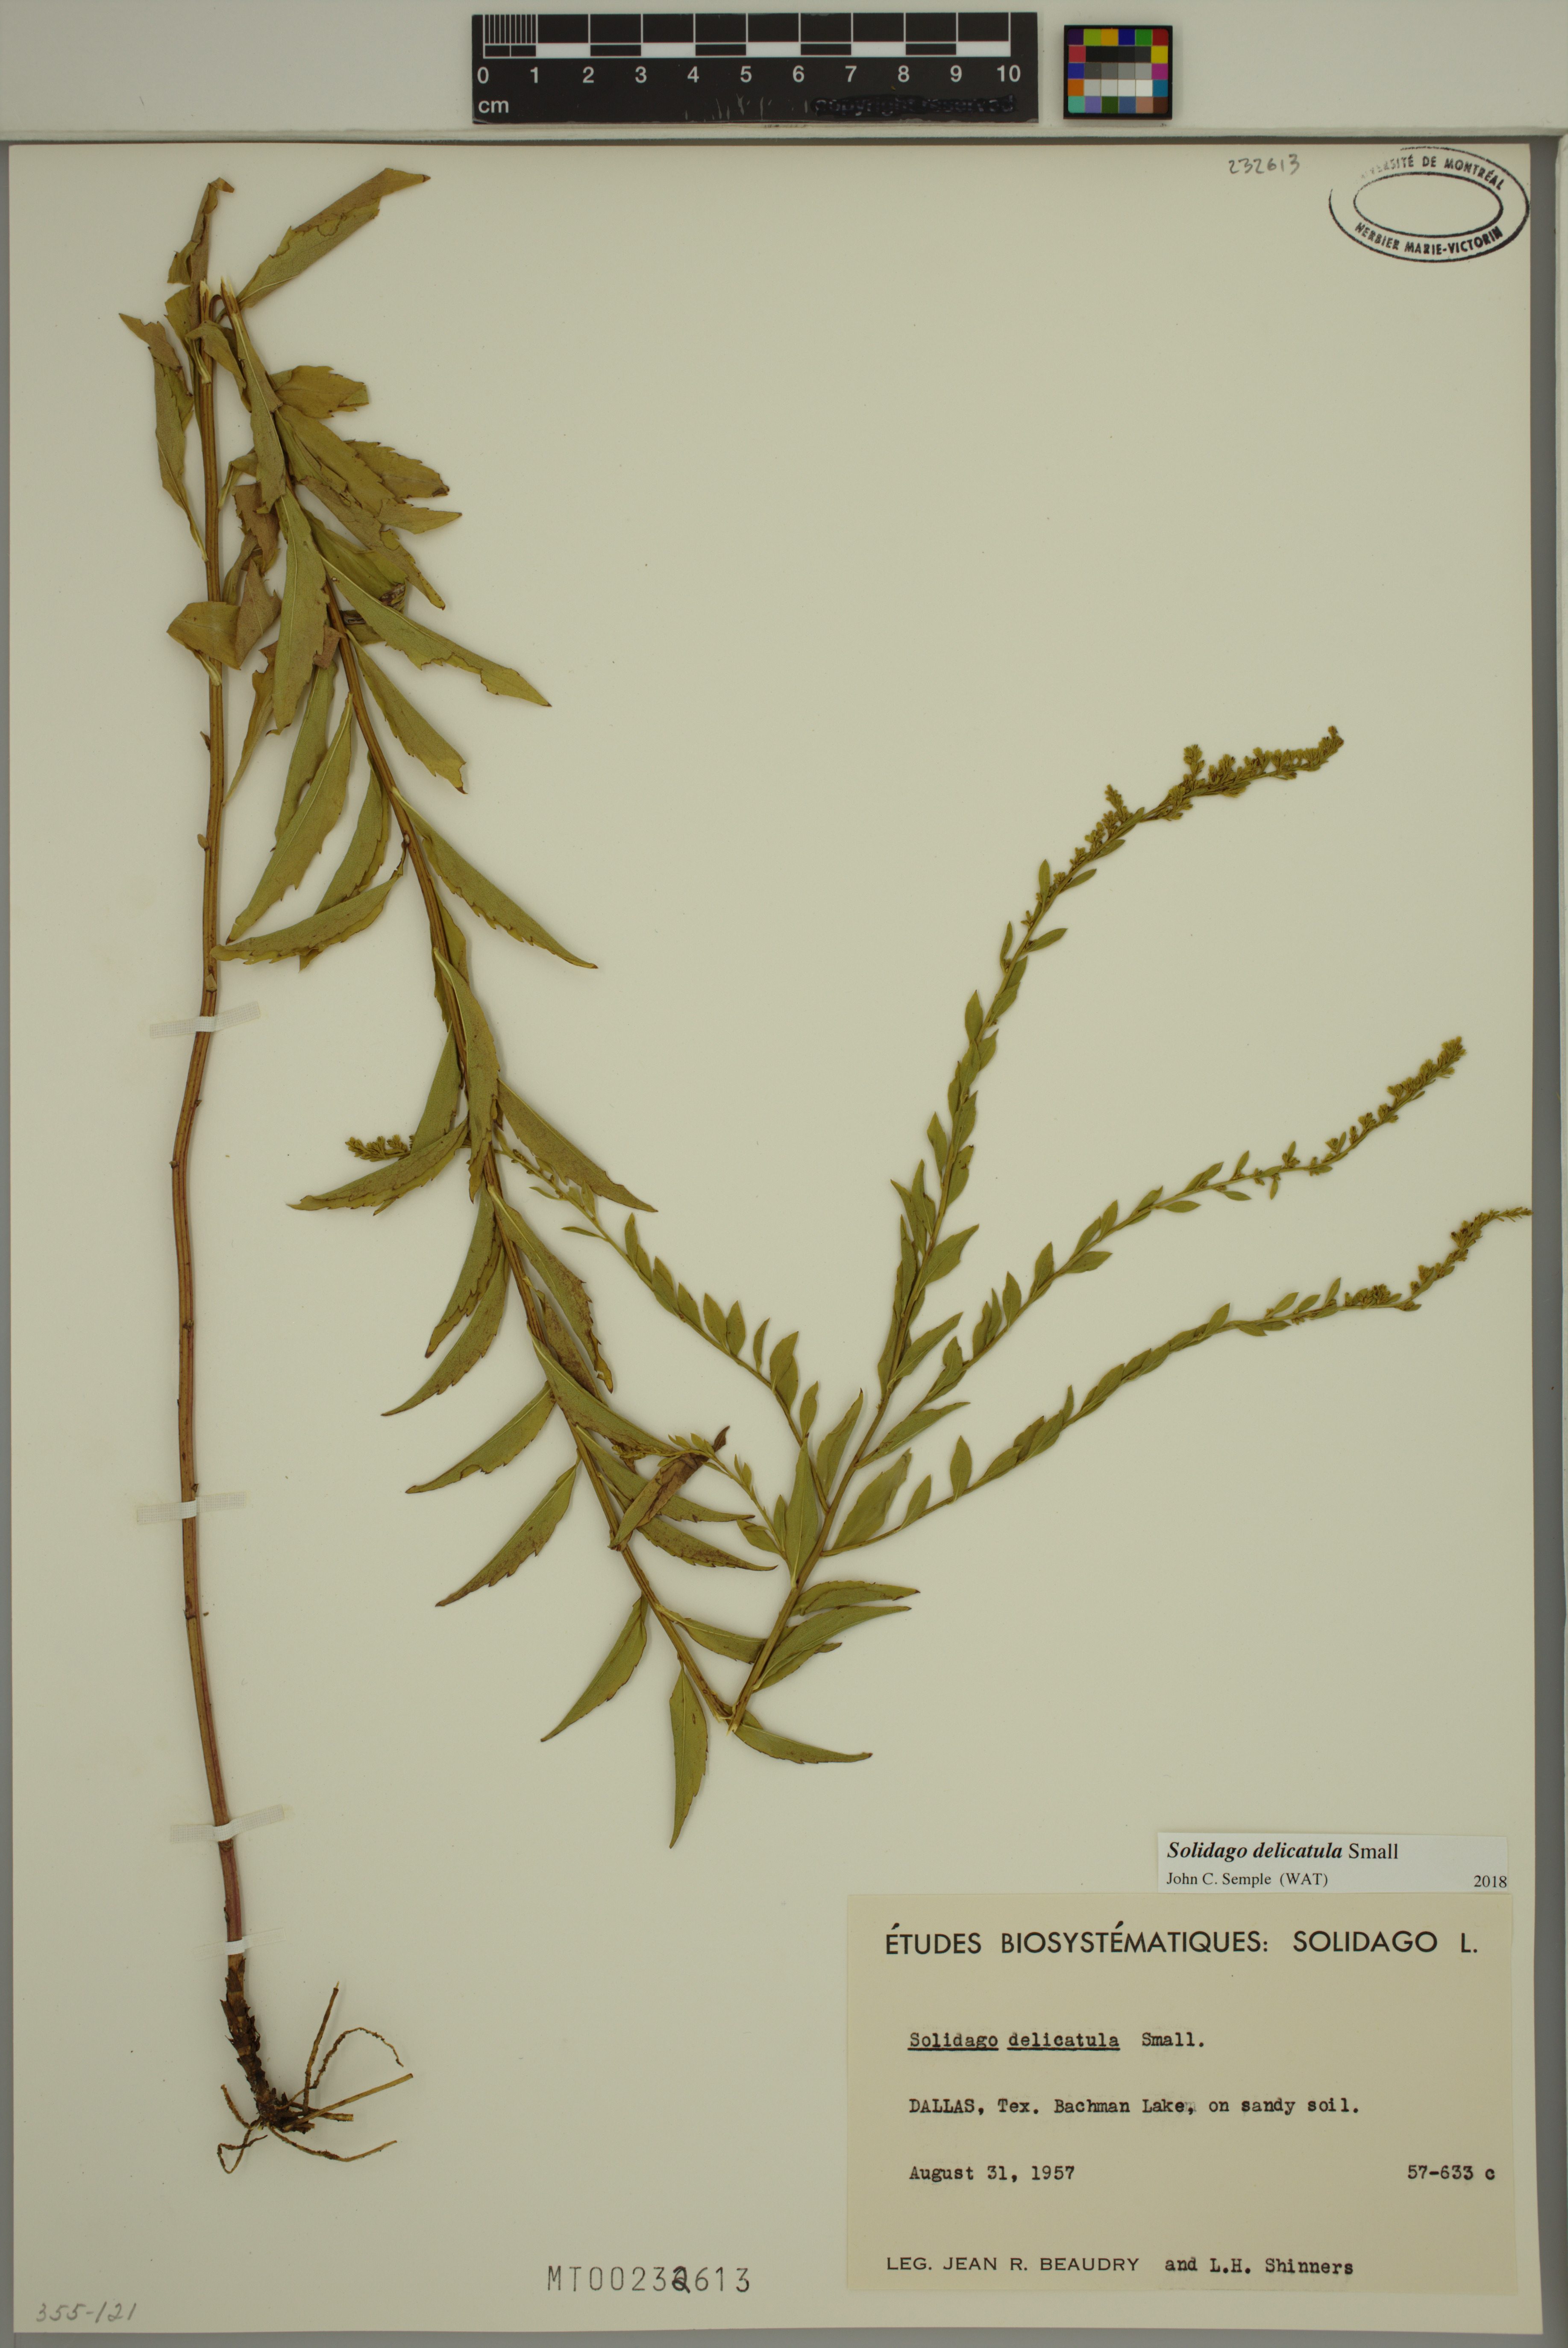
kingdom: Plantae
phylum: Tracheophyta
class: Magnoliopsida
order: Asterales
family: Asteraceae
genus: Solidago
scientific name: Solidago delicatula
